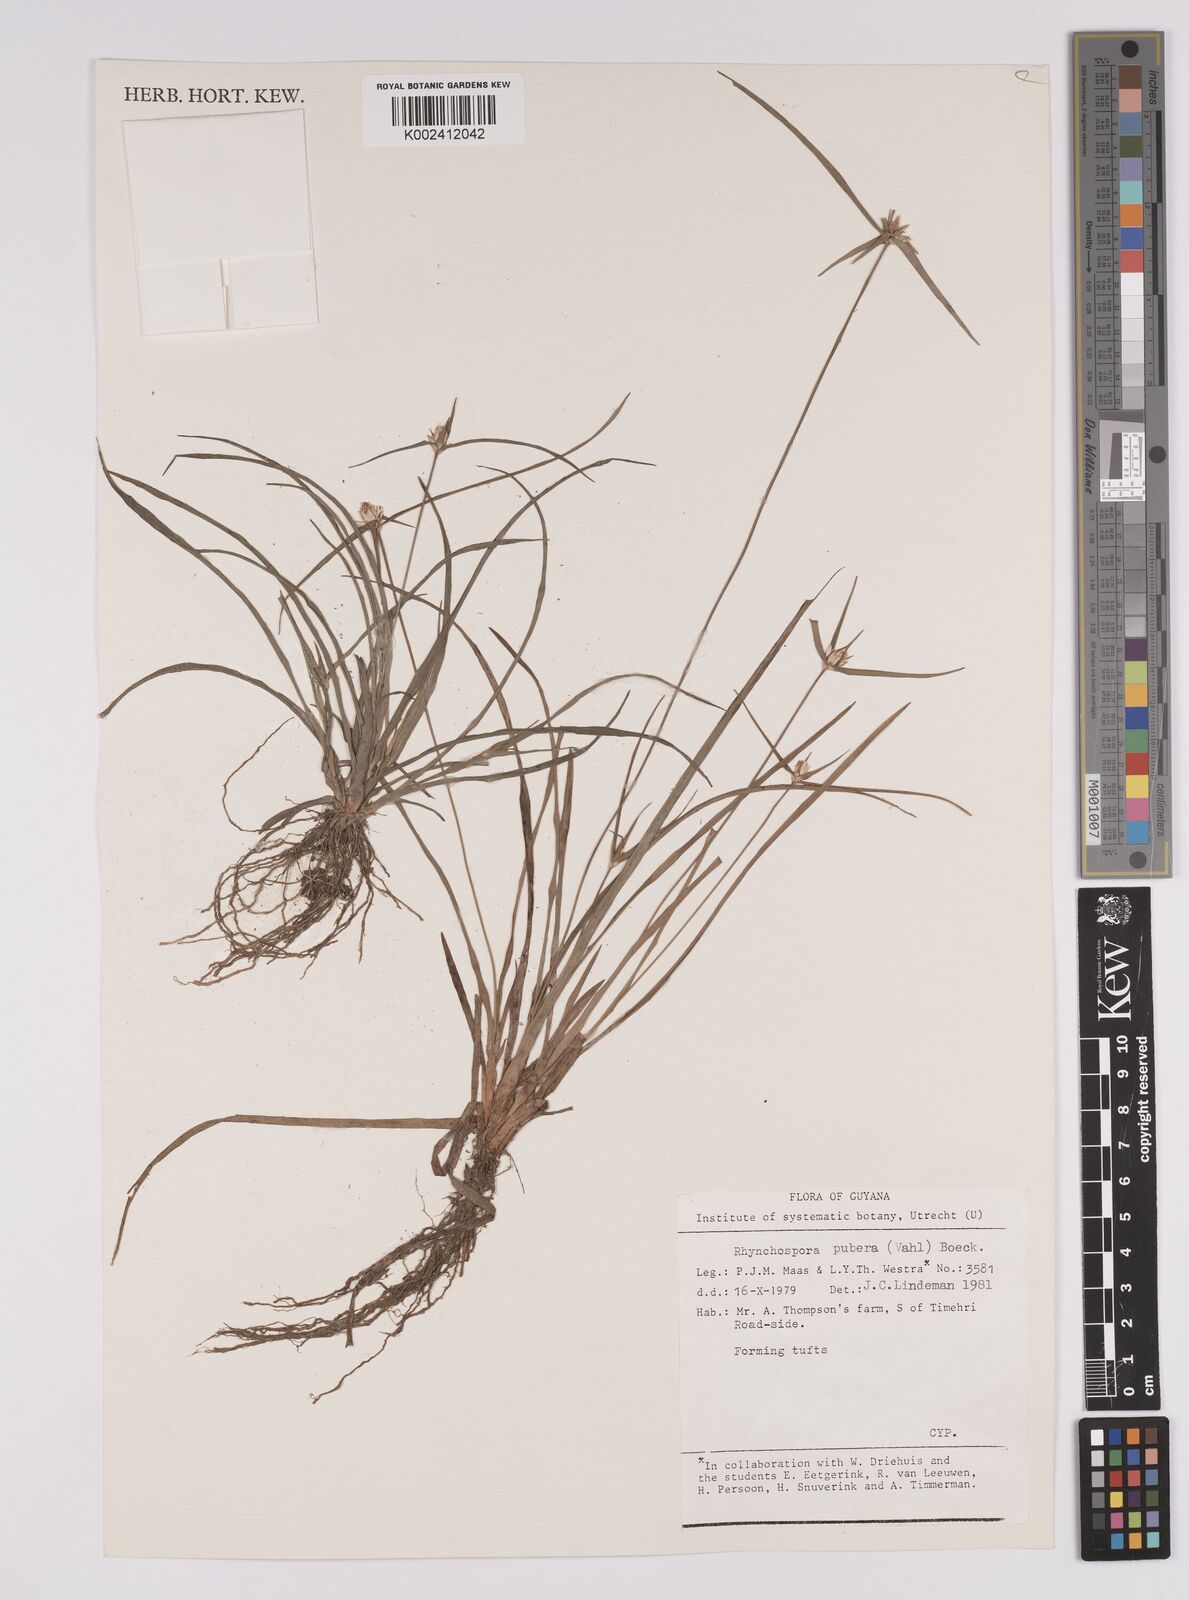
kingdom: Plantae
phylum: Tracheophyta
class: Liliopsida
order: Poales
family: Cyperaceae
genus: Rhynchospora
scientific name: Rhynchospora pubera
